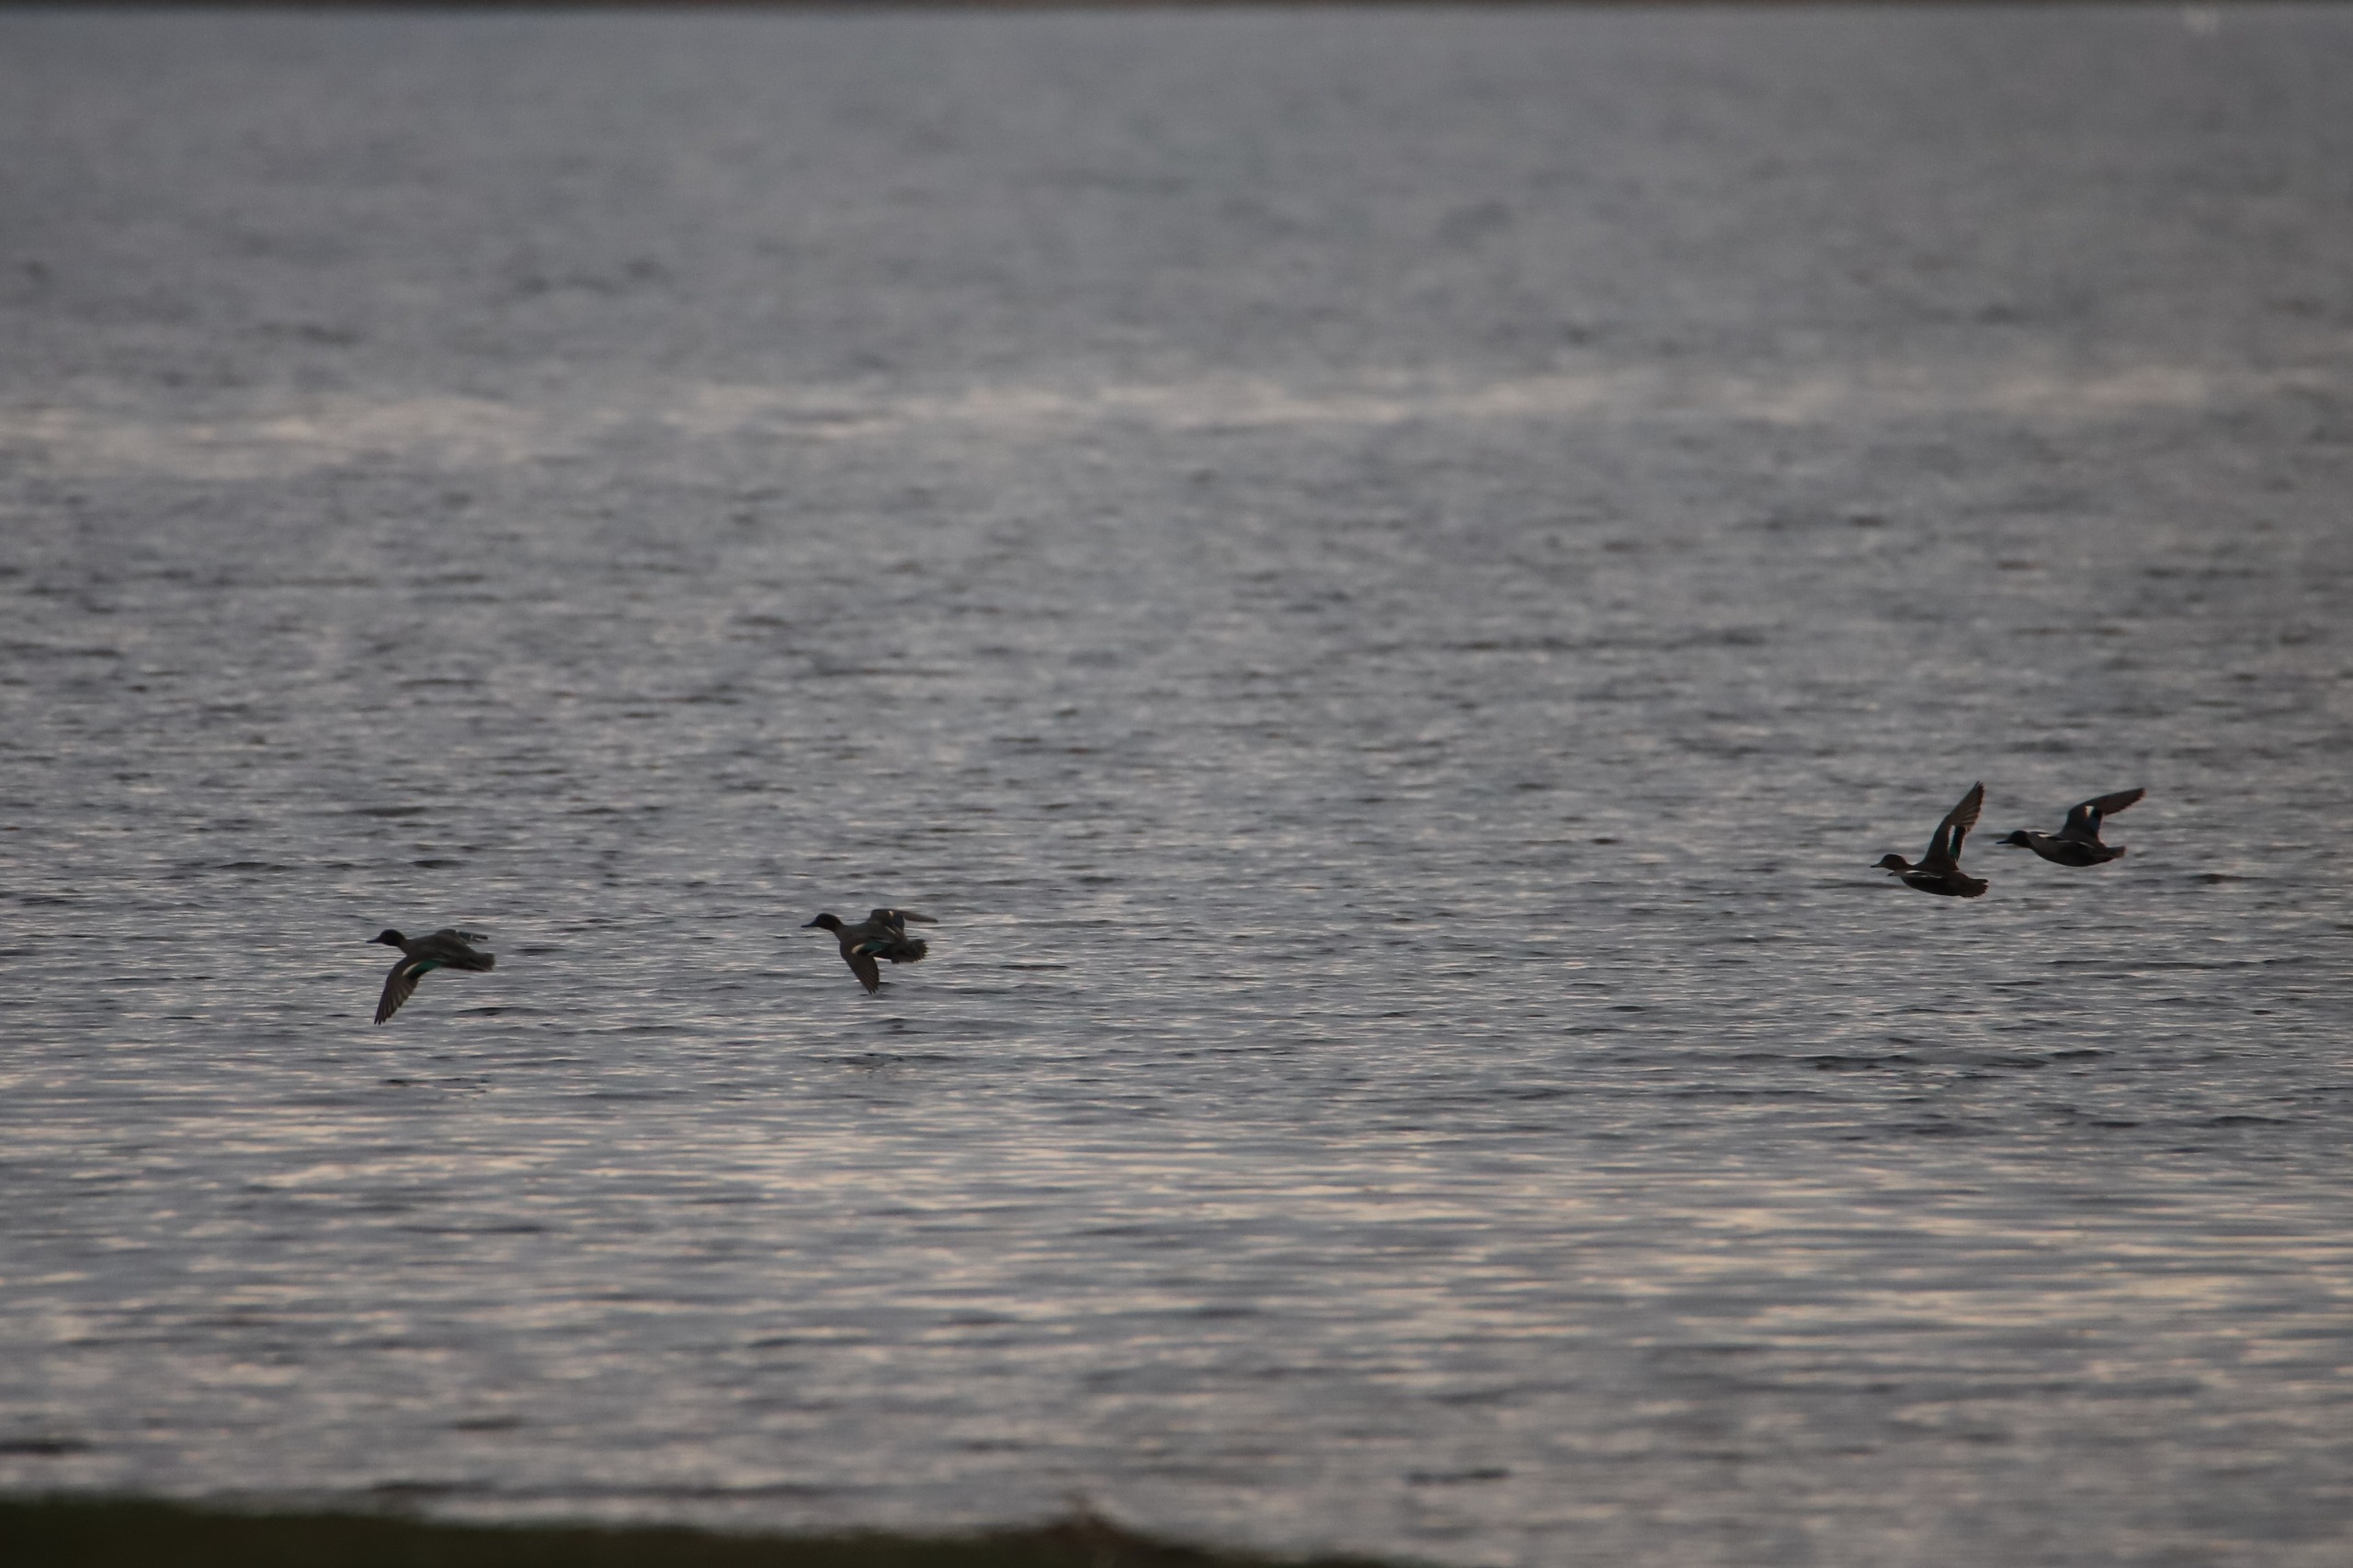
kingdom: Animalia
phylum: Chordata
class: Aves
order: Anseriformes
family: Anatidae
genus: Anas
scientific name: Anas crecca
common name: Krikand
